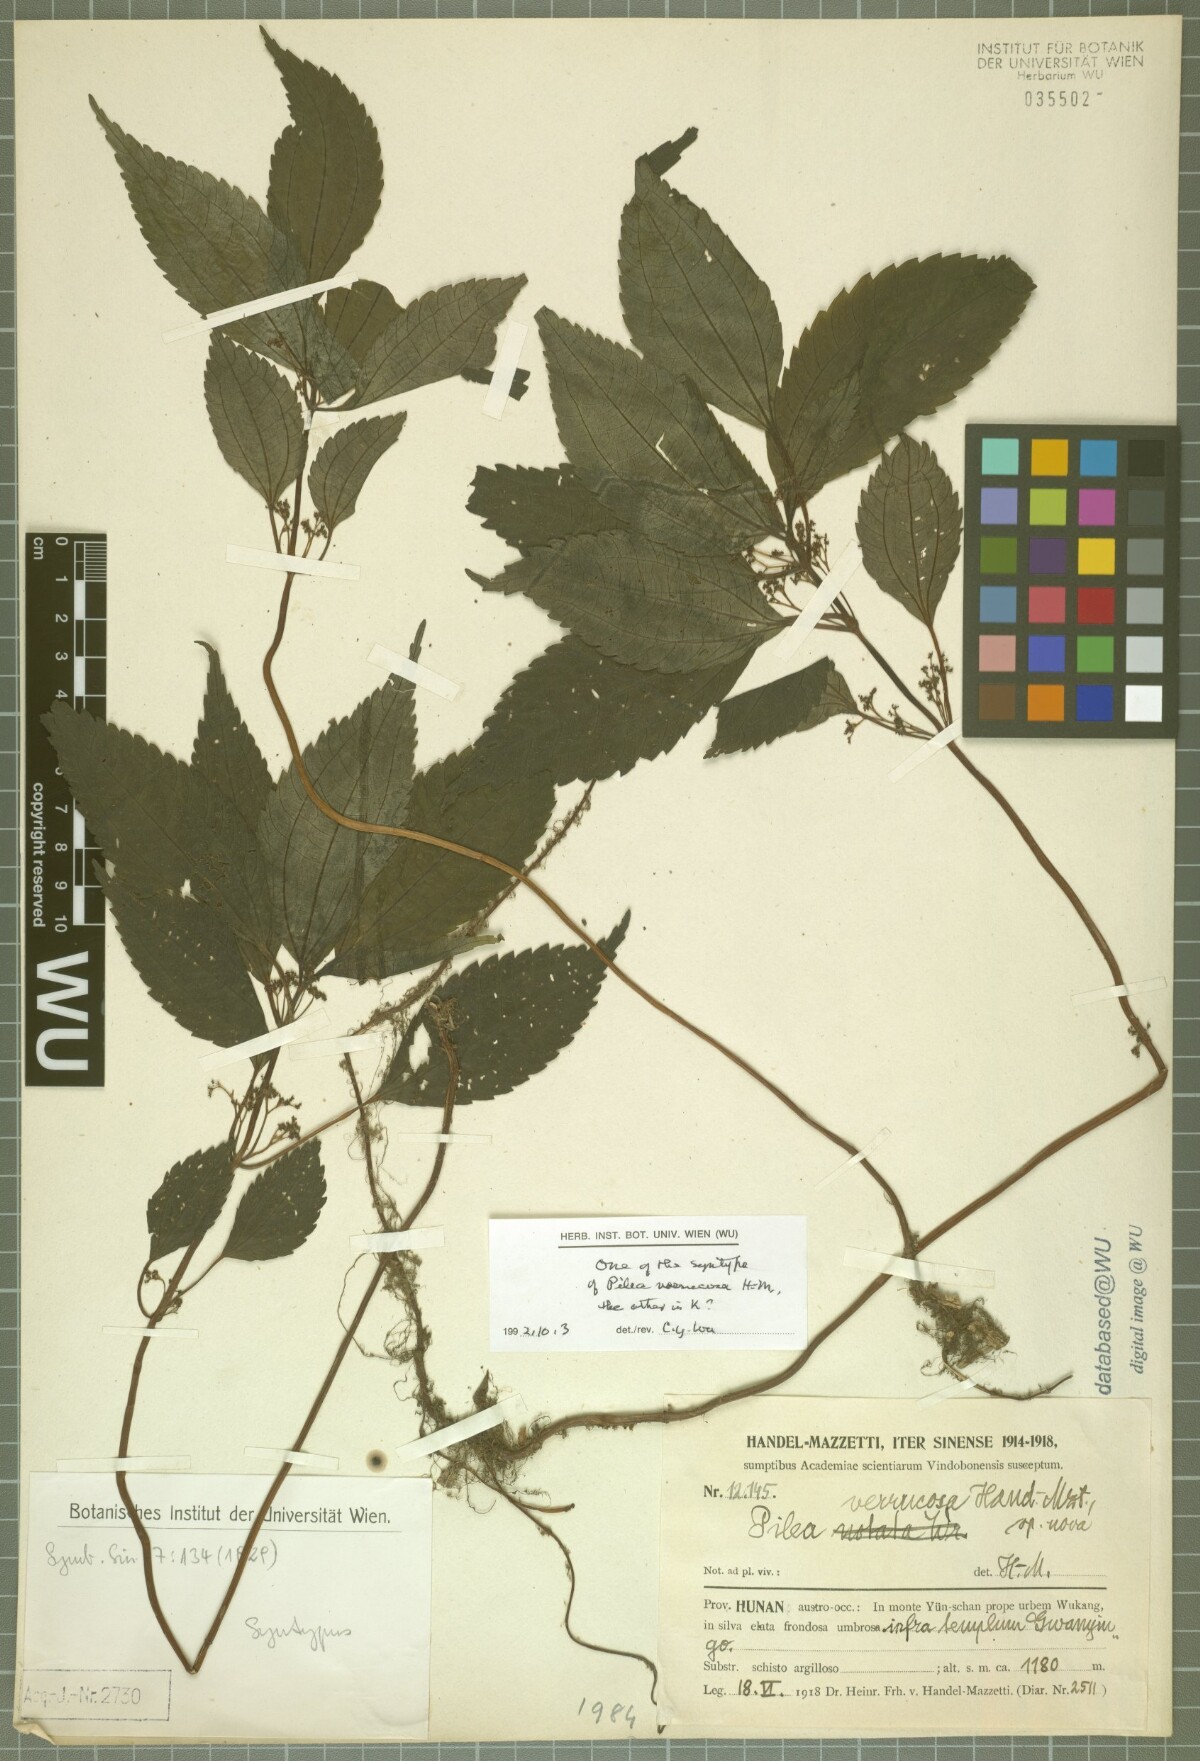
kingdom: Plantae
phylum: Tracheophyta
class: Magnoliopsida
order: Rosales
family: Urticaceae
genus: Pilea
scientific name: Pilea gracilis
